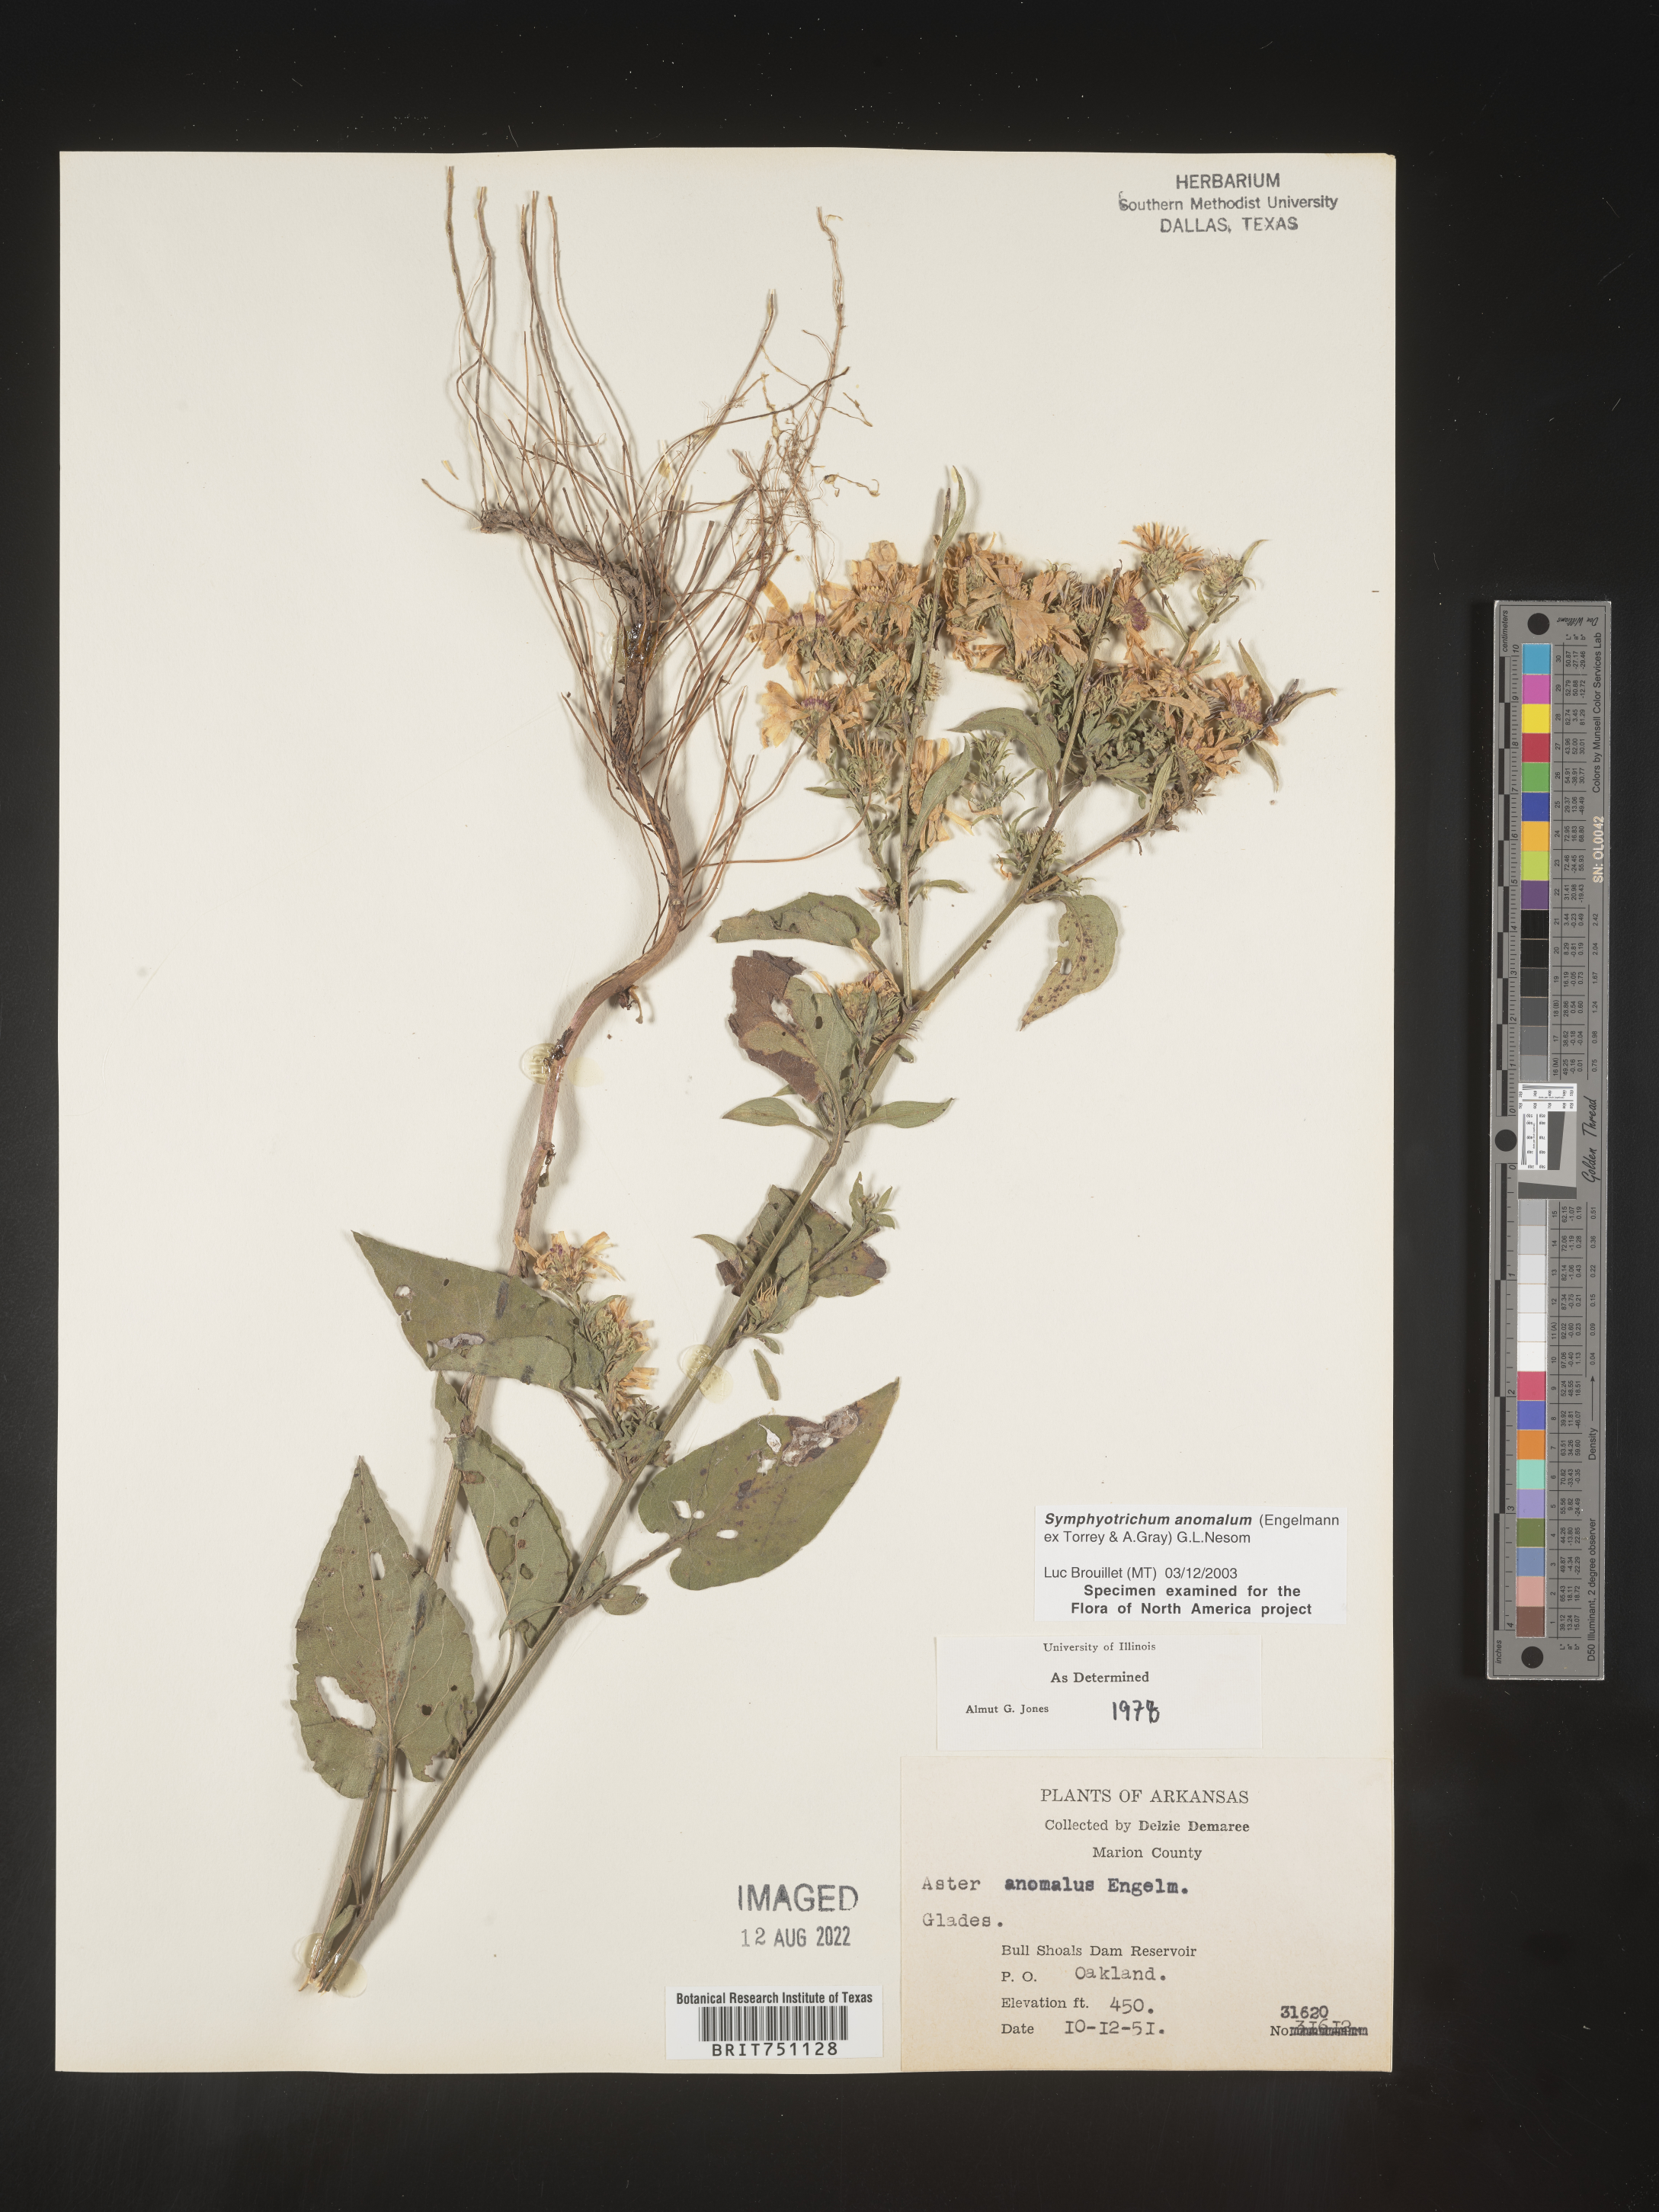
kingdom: Plantae
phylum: Tracheophyta
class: Magnoliopsida
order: Asterales
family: Asteraceae
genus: Symphyotrichum
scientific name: Symphyotrichum anomalum
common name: Many-ray aster
